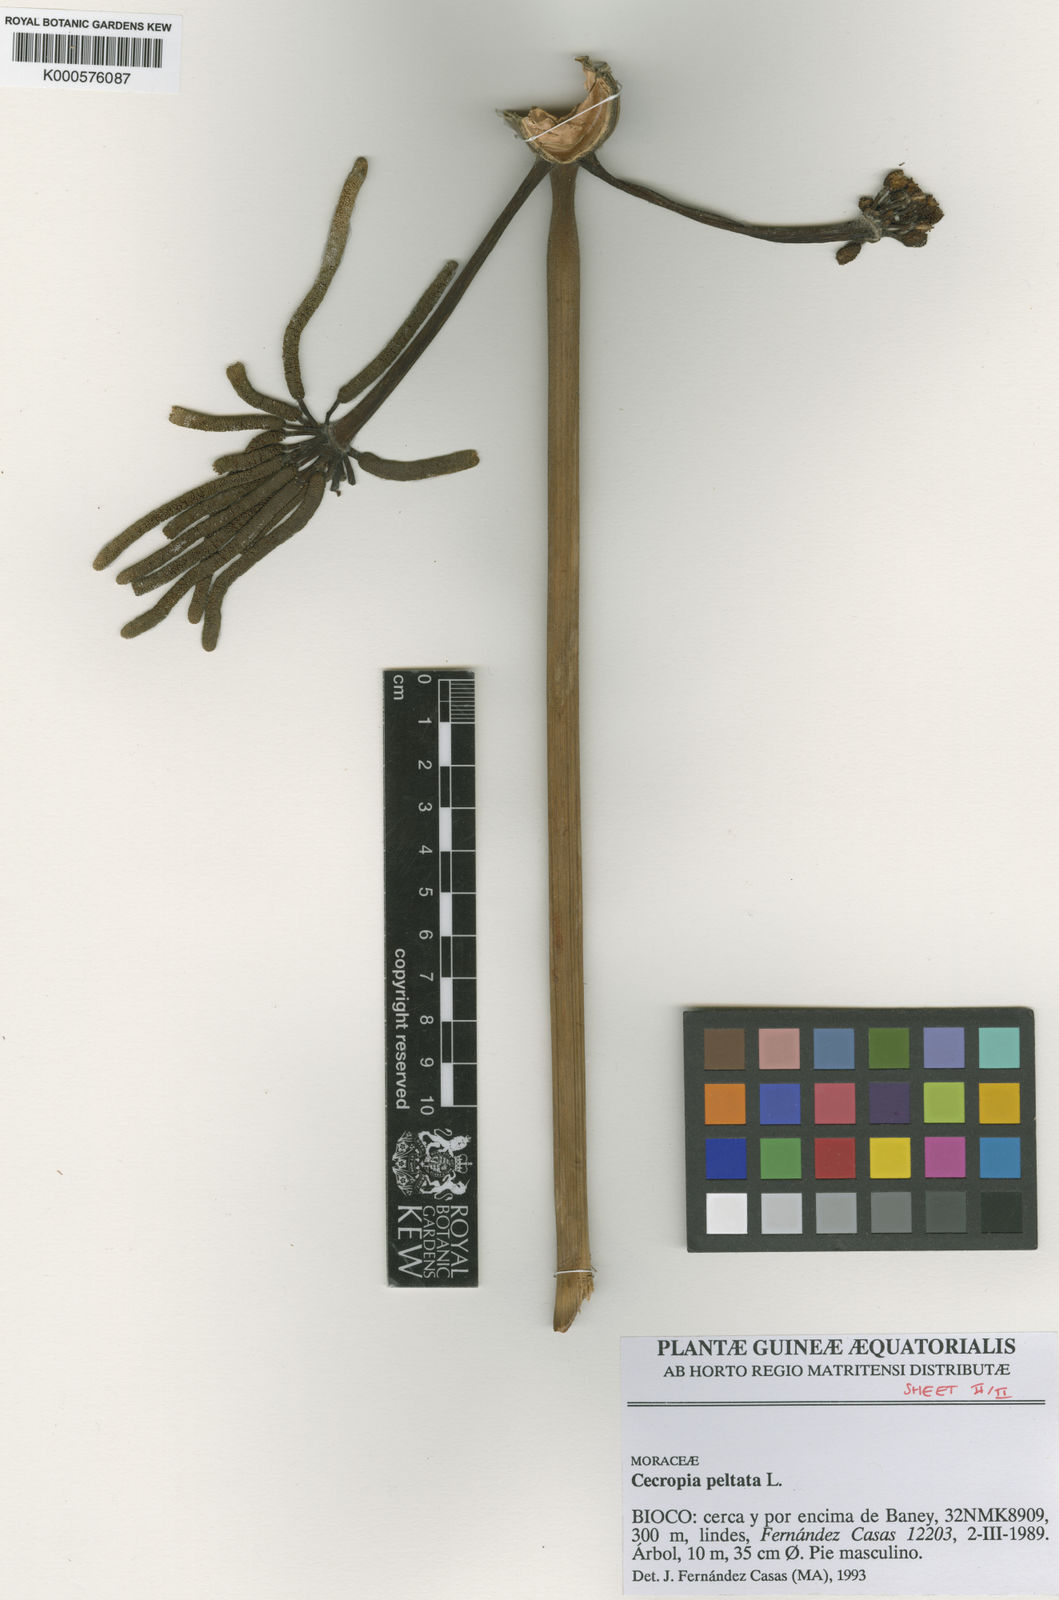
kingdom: Plantae
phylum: Tracheophyta
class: Magnoliopsida
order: Rosales
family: Urticaceae
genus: Cecropia
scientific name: Cecropia peltata
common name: Trumpet-tree
